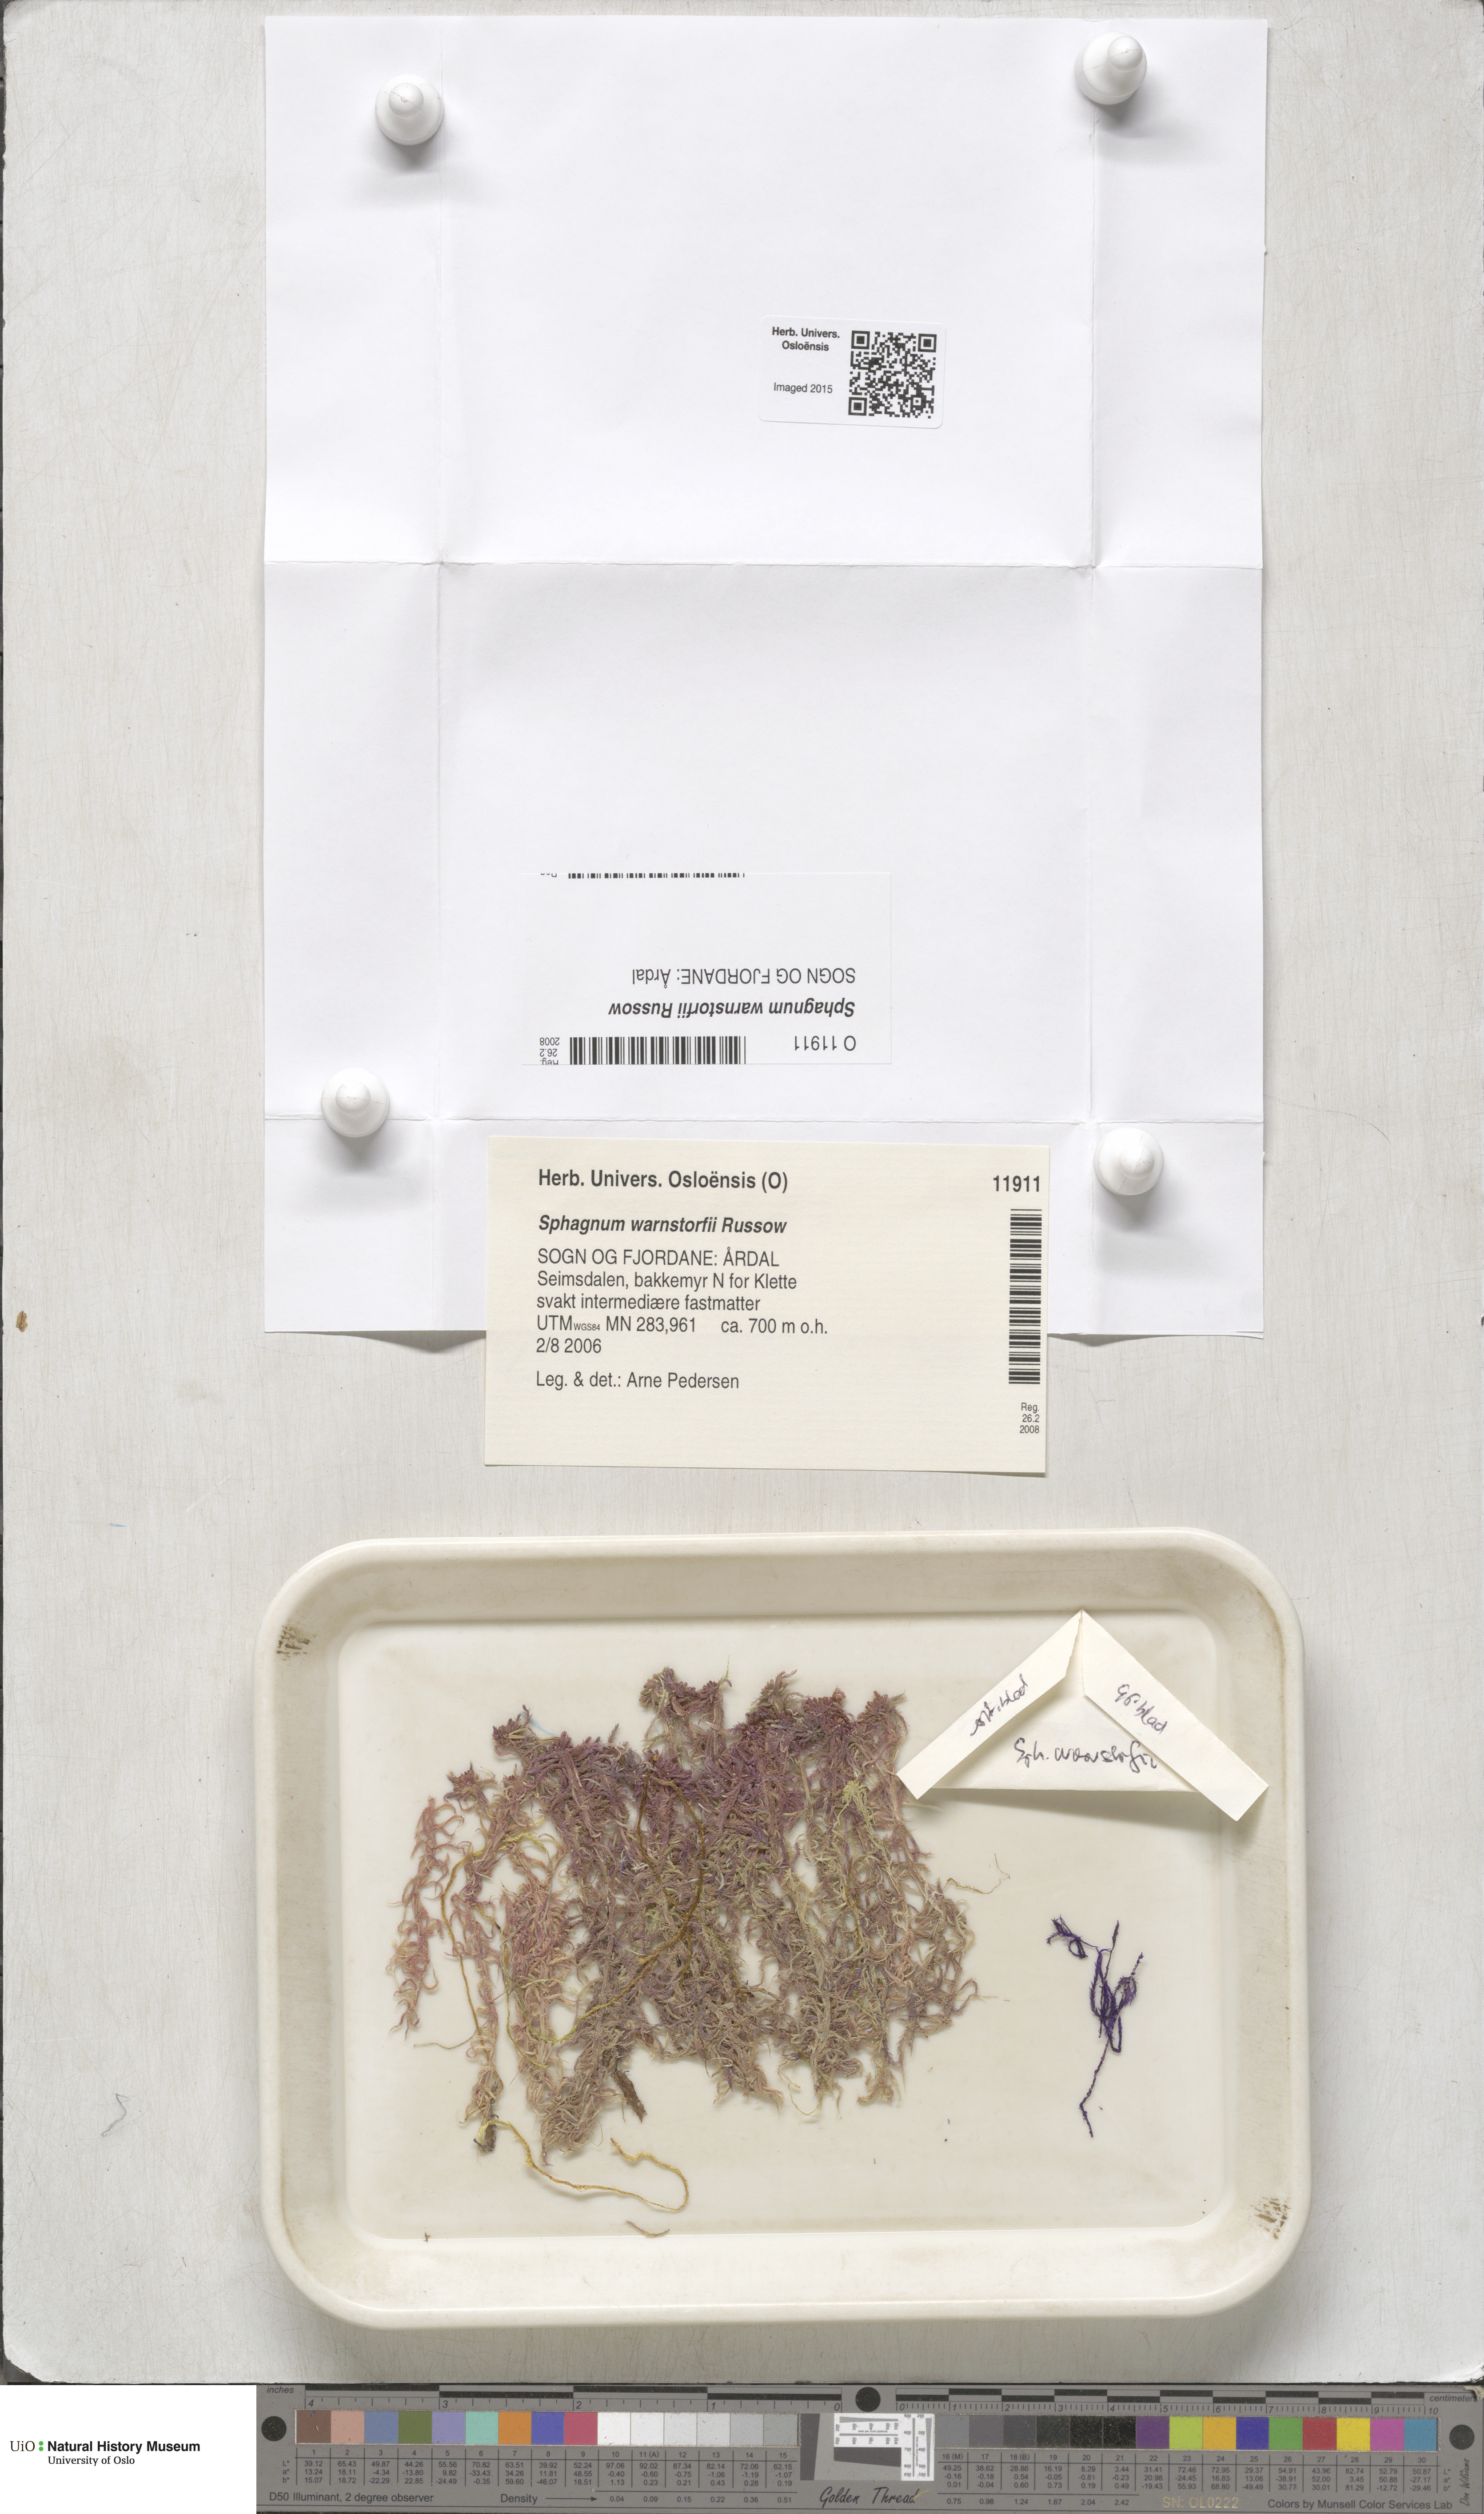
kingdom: Plantae
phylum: Bryophyta
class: Sphagnopsida
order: Sphagnales
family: Sphagnaceae
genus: Sphagnum
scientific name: Sphagnum warnstorfii
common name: Warnstorf's peat moss
